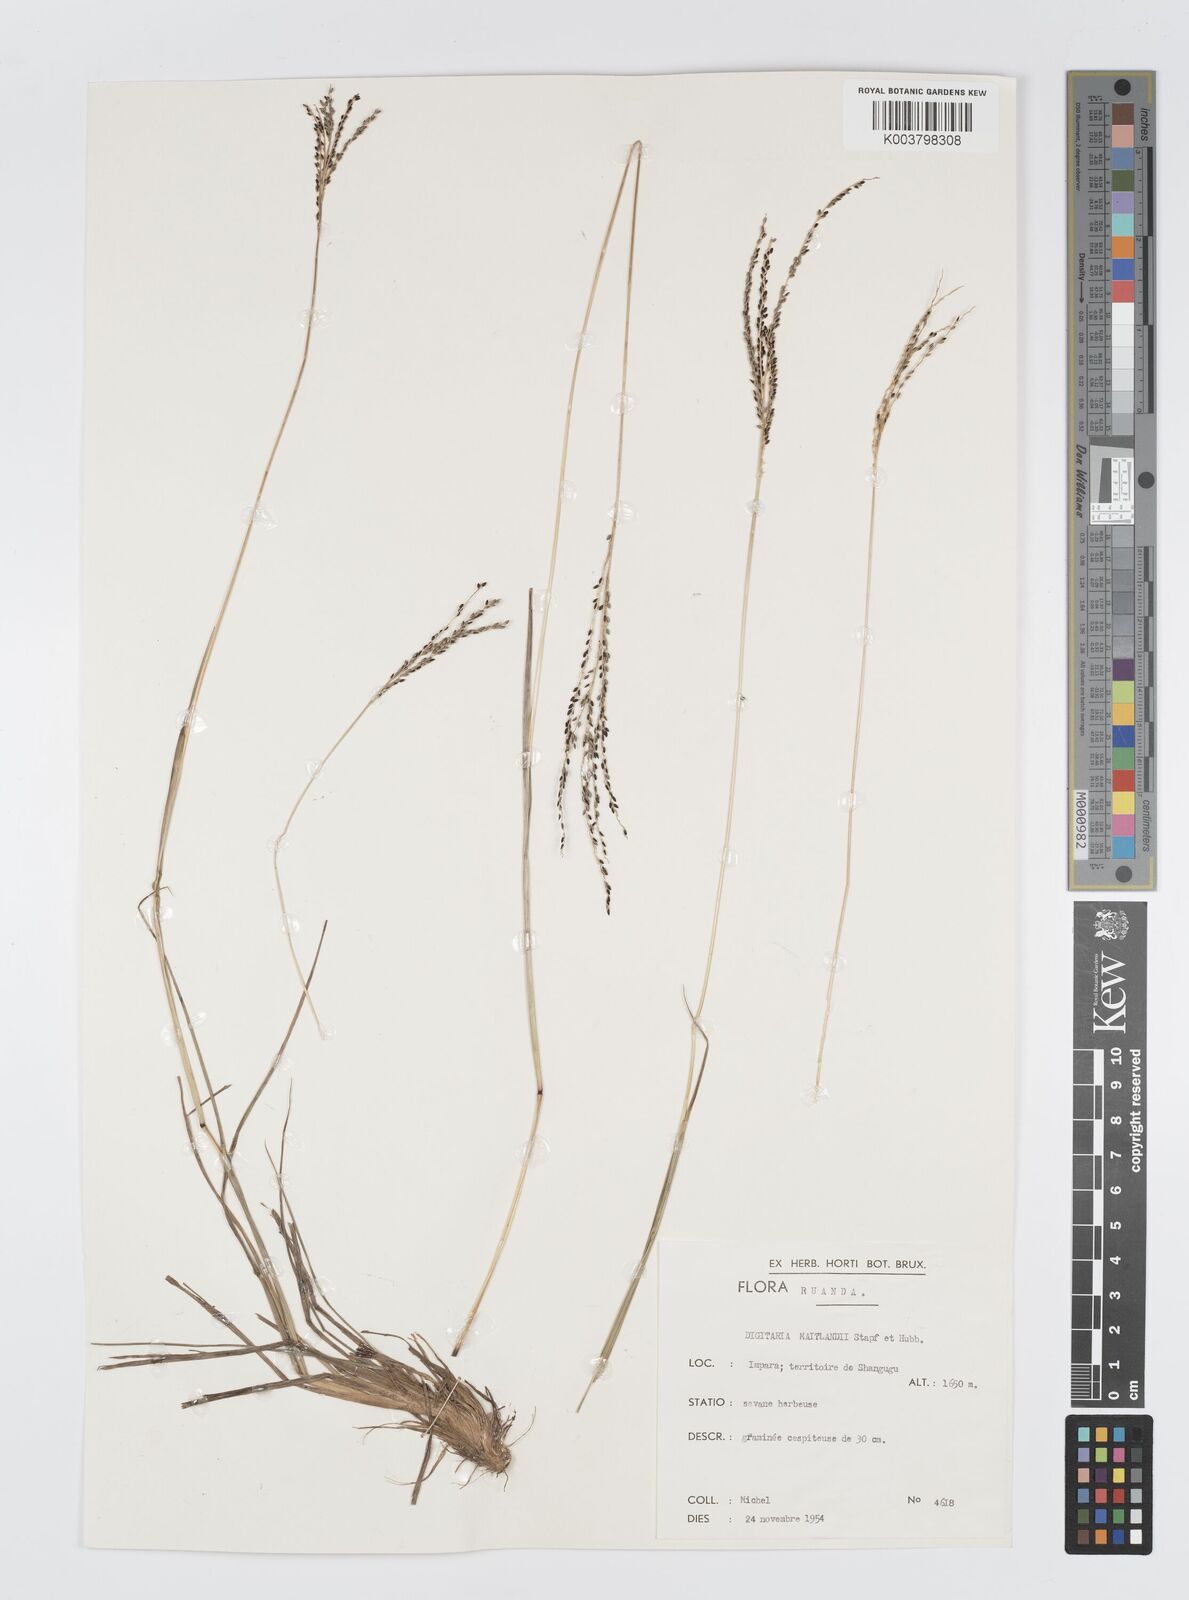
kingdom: Plantae
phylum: Tracheophyta
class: Liliopsida
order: Poales
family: Poaceae
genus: Digitaria
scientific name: Digitaria maitlandii
